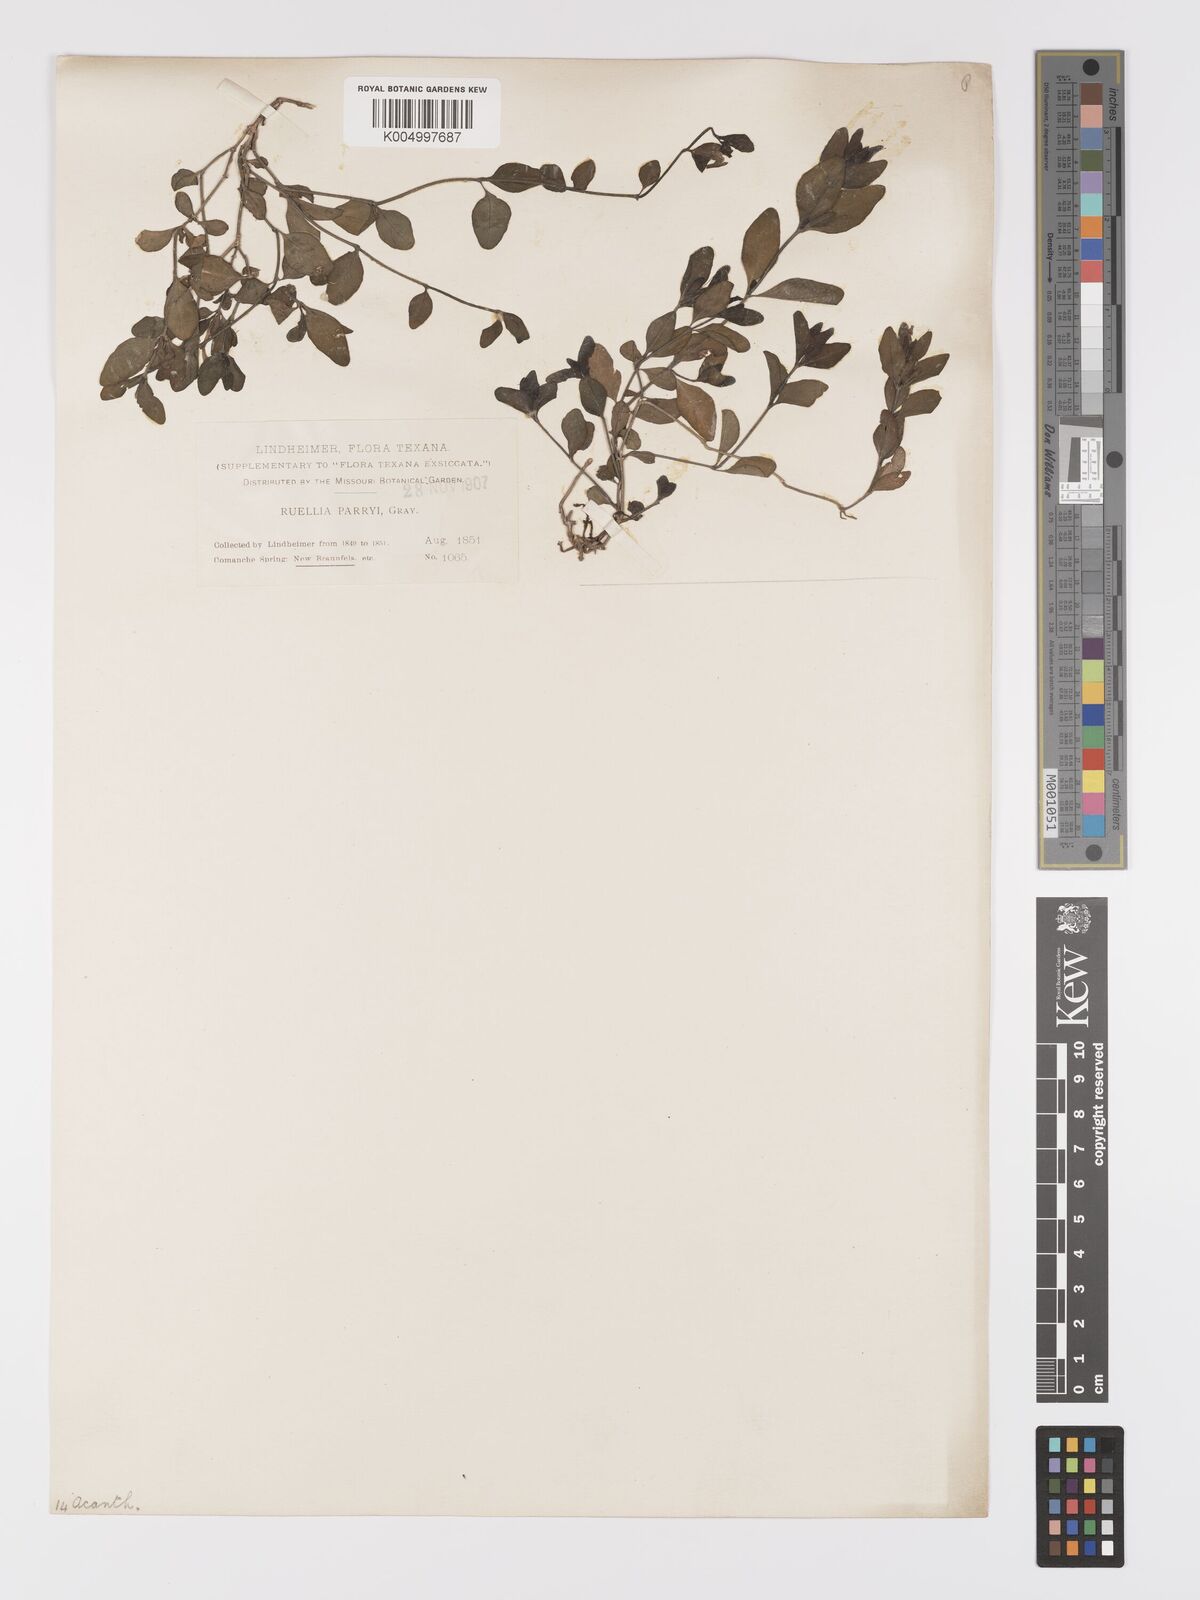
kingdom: Plantae
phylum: Tracheophyta
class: Magnoliopsida
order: Lamiales
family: Acanthaceae
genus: Ruellia
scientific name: Ruellia parryi
